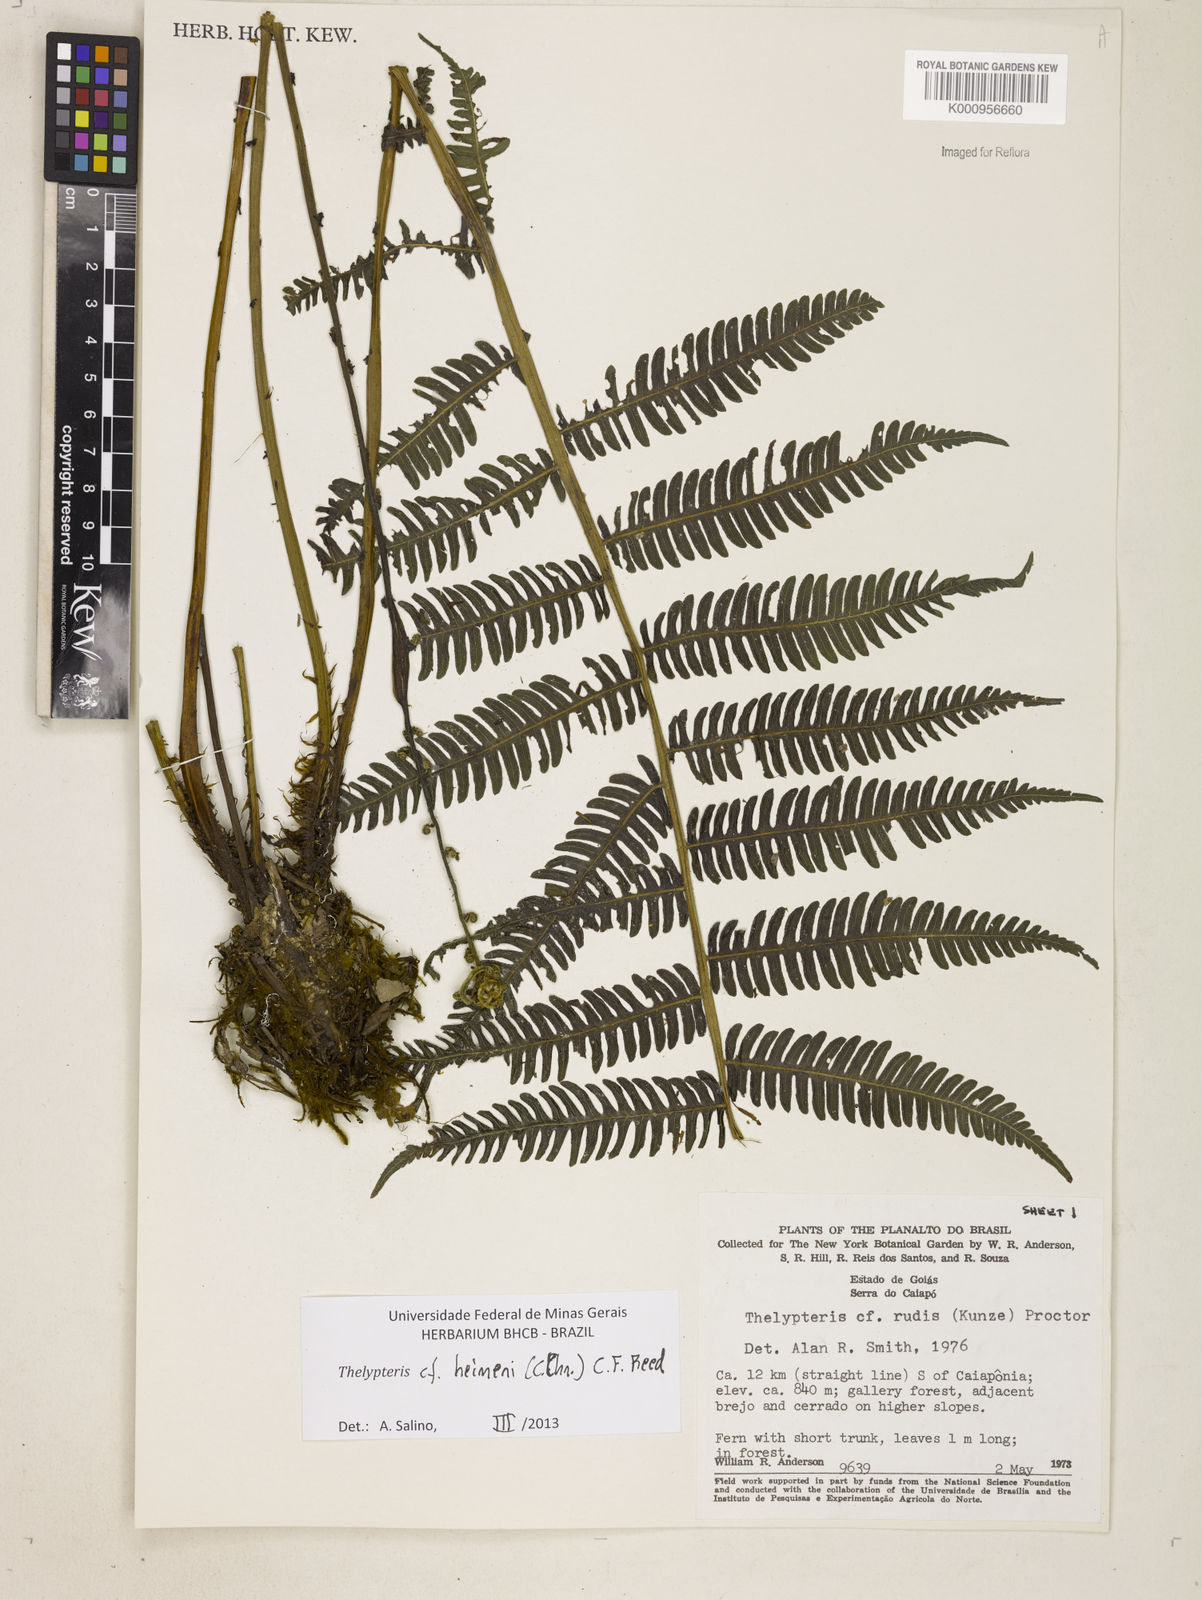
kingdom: Plantae
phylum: Tracheophyta
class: Polypodiopsida
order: Polypodiales
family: Thelypteridaceae
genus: Amauropelta
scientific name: Amauropelta heineri
